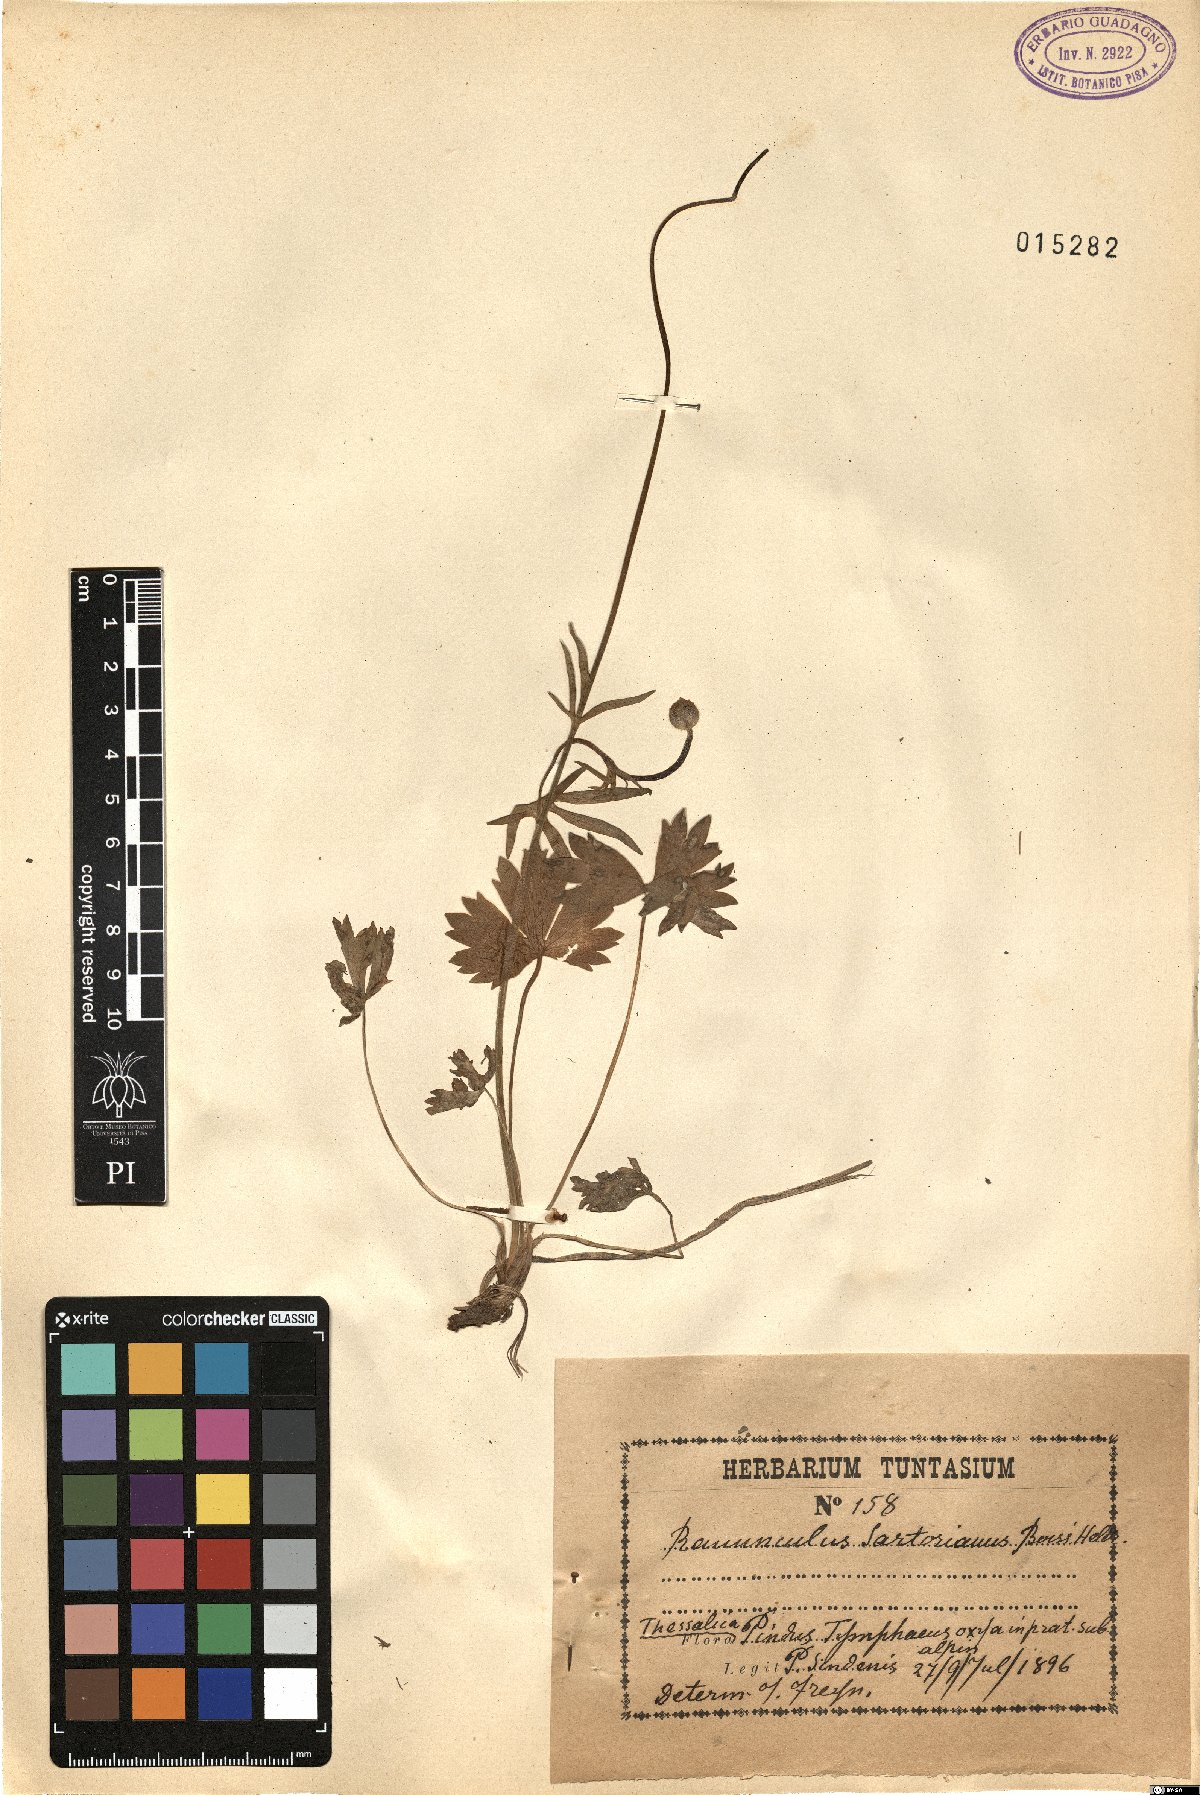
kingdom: Plantae
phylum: Tracheophyta
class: Magnoliopsida
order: Ranunculales
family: Ranunculaceae
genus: Ranunculus
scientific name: Ranunculus sartorianus
